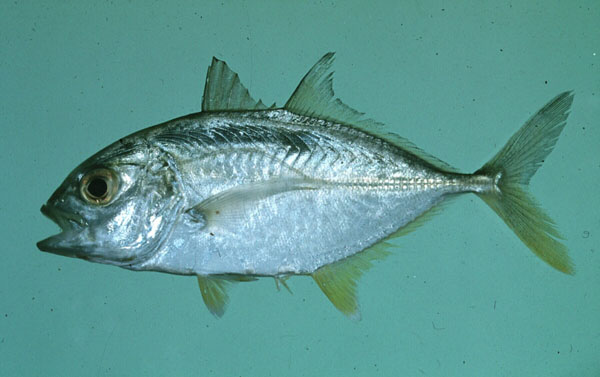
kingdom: Animalia
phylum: Chordata
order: Perciformes
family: Carangidae
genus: Caranx
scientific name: Caranx papuensis
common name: Brassy trevally
